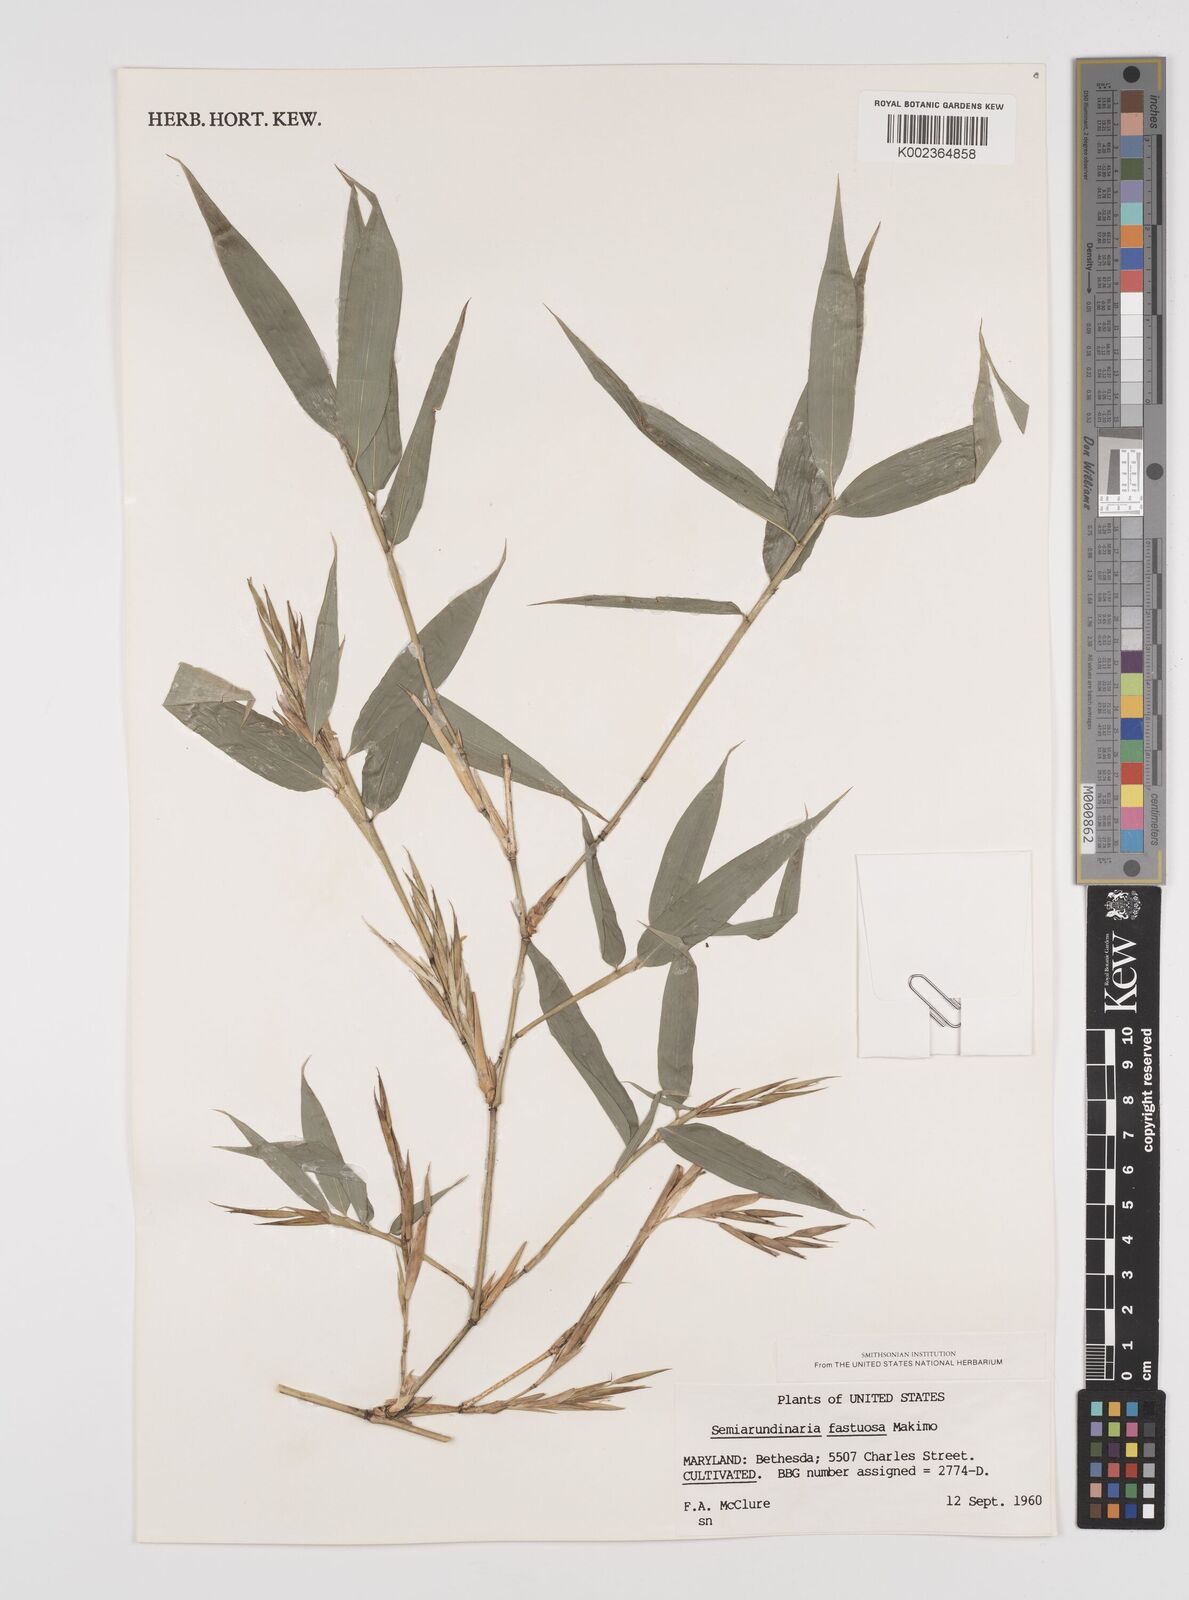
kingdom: Plantae
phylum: Tracheophyta
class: Liliopsida
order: Poales
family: Poaceae
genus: Semiarundinaria
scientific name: Semiarundinaria fastuosa
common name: Narihira bamboo
